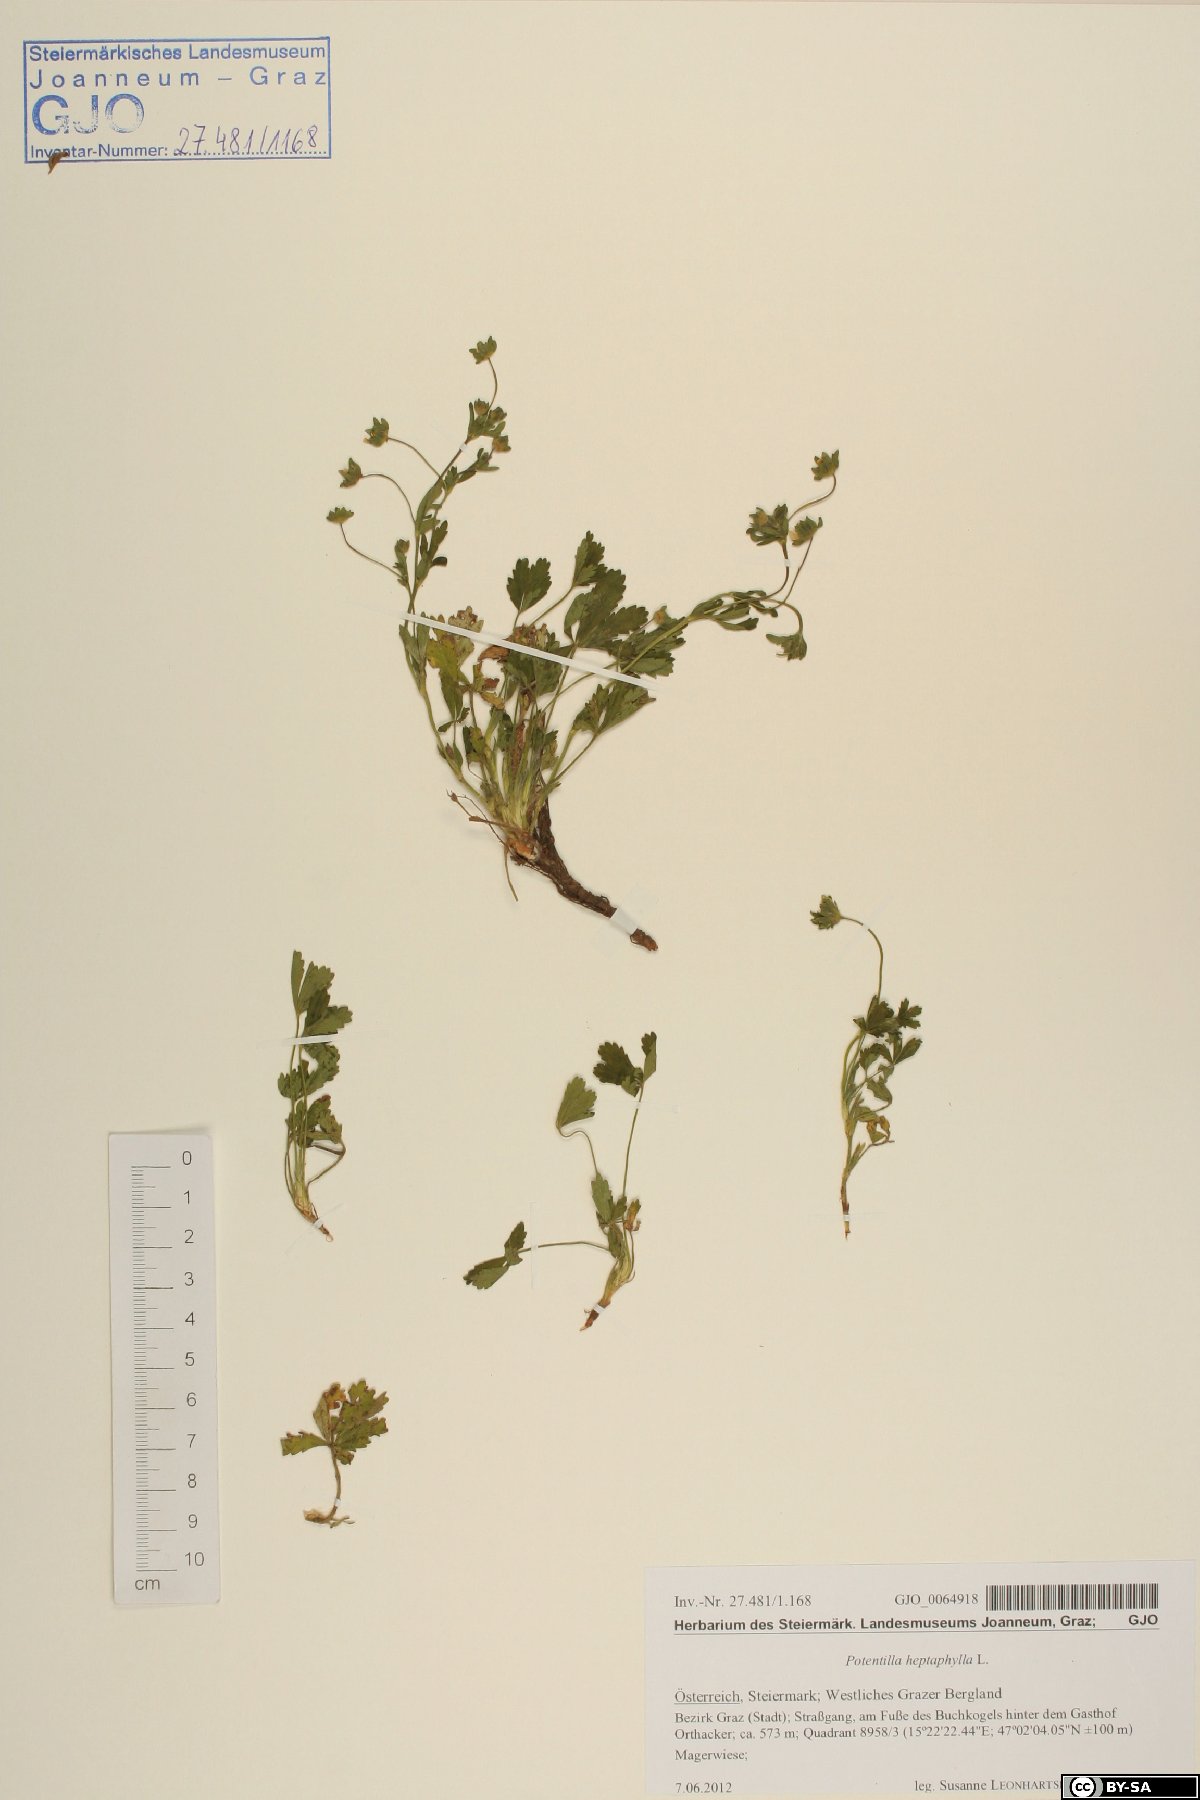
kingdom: Plantae
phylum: Tracheophyta
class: Magnoliopsida
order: Rosales
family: Rosaceae
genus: Potentilla
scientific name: Potentilla heptaphylla
